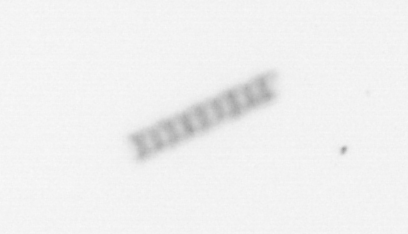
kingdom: Chromista
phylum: Ochrophyta
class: Bacillariophyceae
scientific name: Bacillariophyceae
